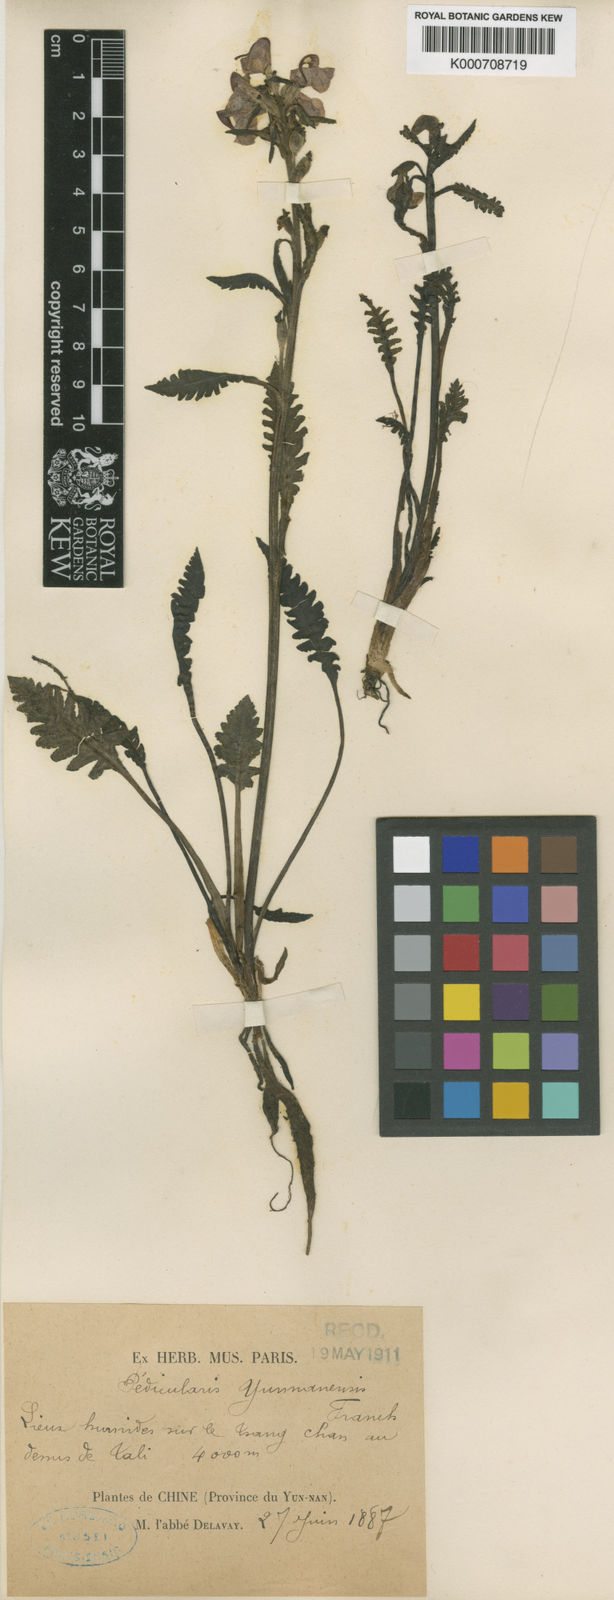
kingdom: Plantae
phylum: Tracheophyta
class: Magnoliopsida
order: Lamiales
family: Orobanchaceae
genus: Pedicularis
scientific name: Pedicularis yunnanensis
